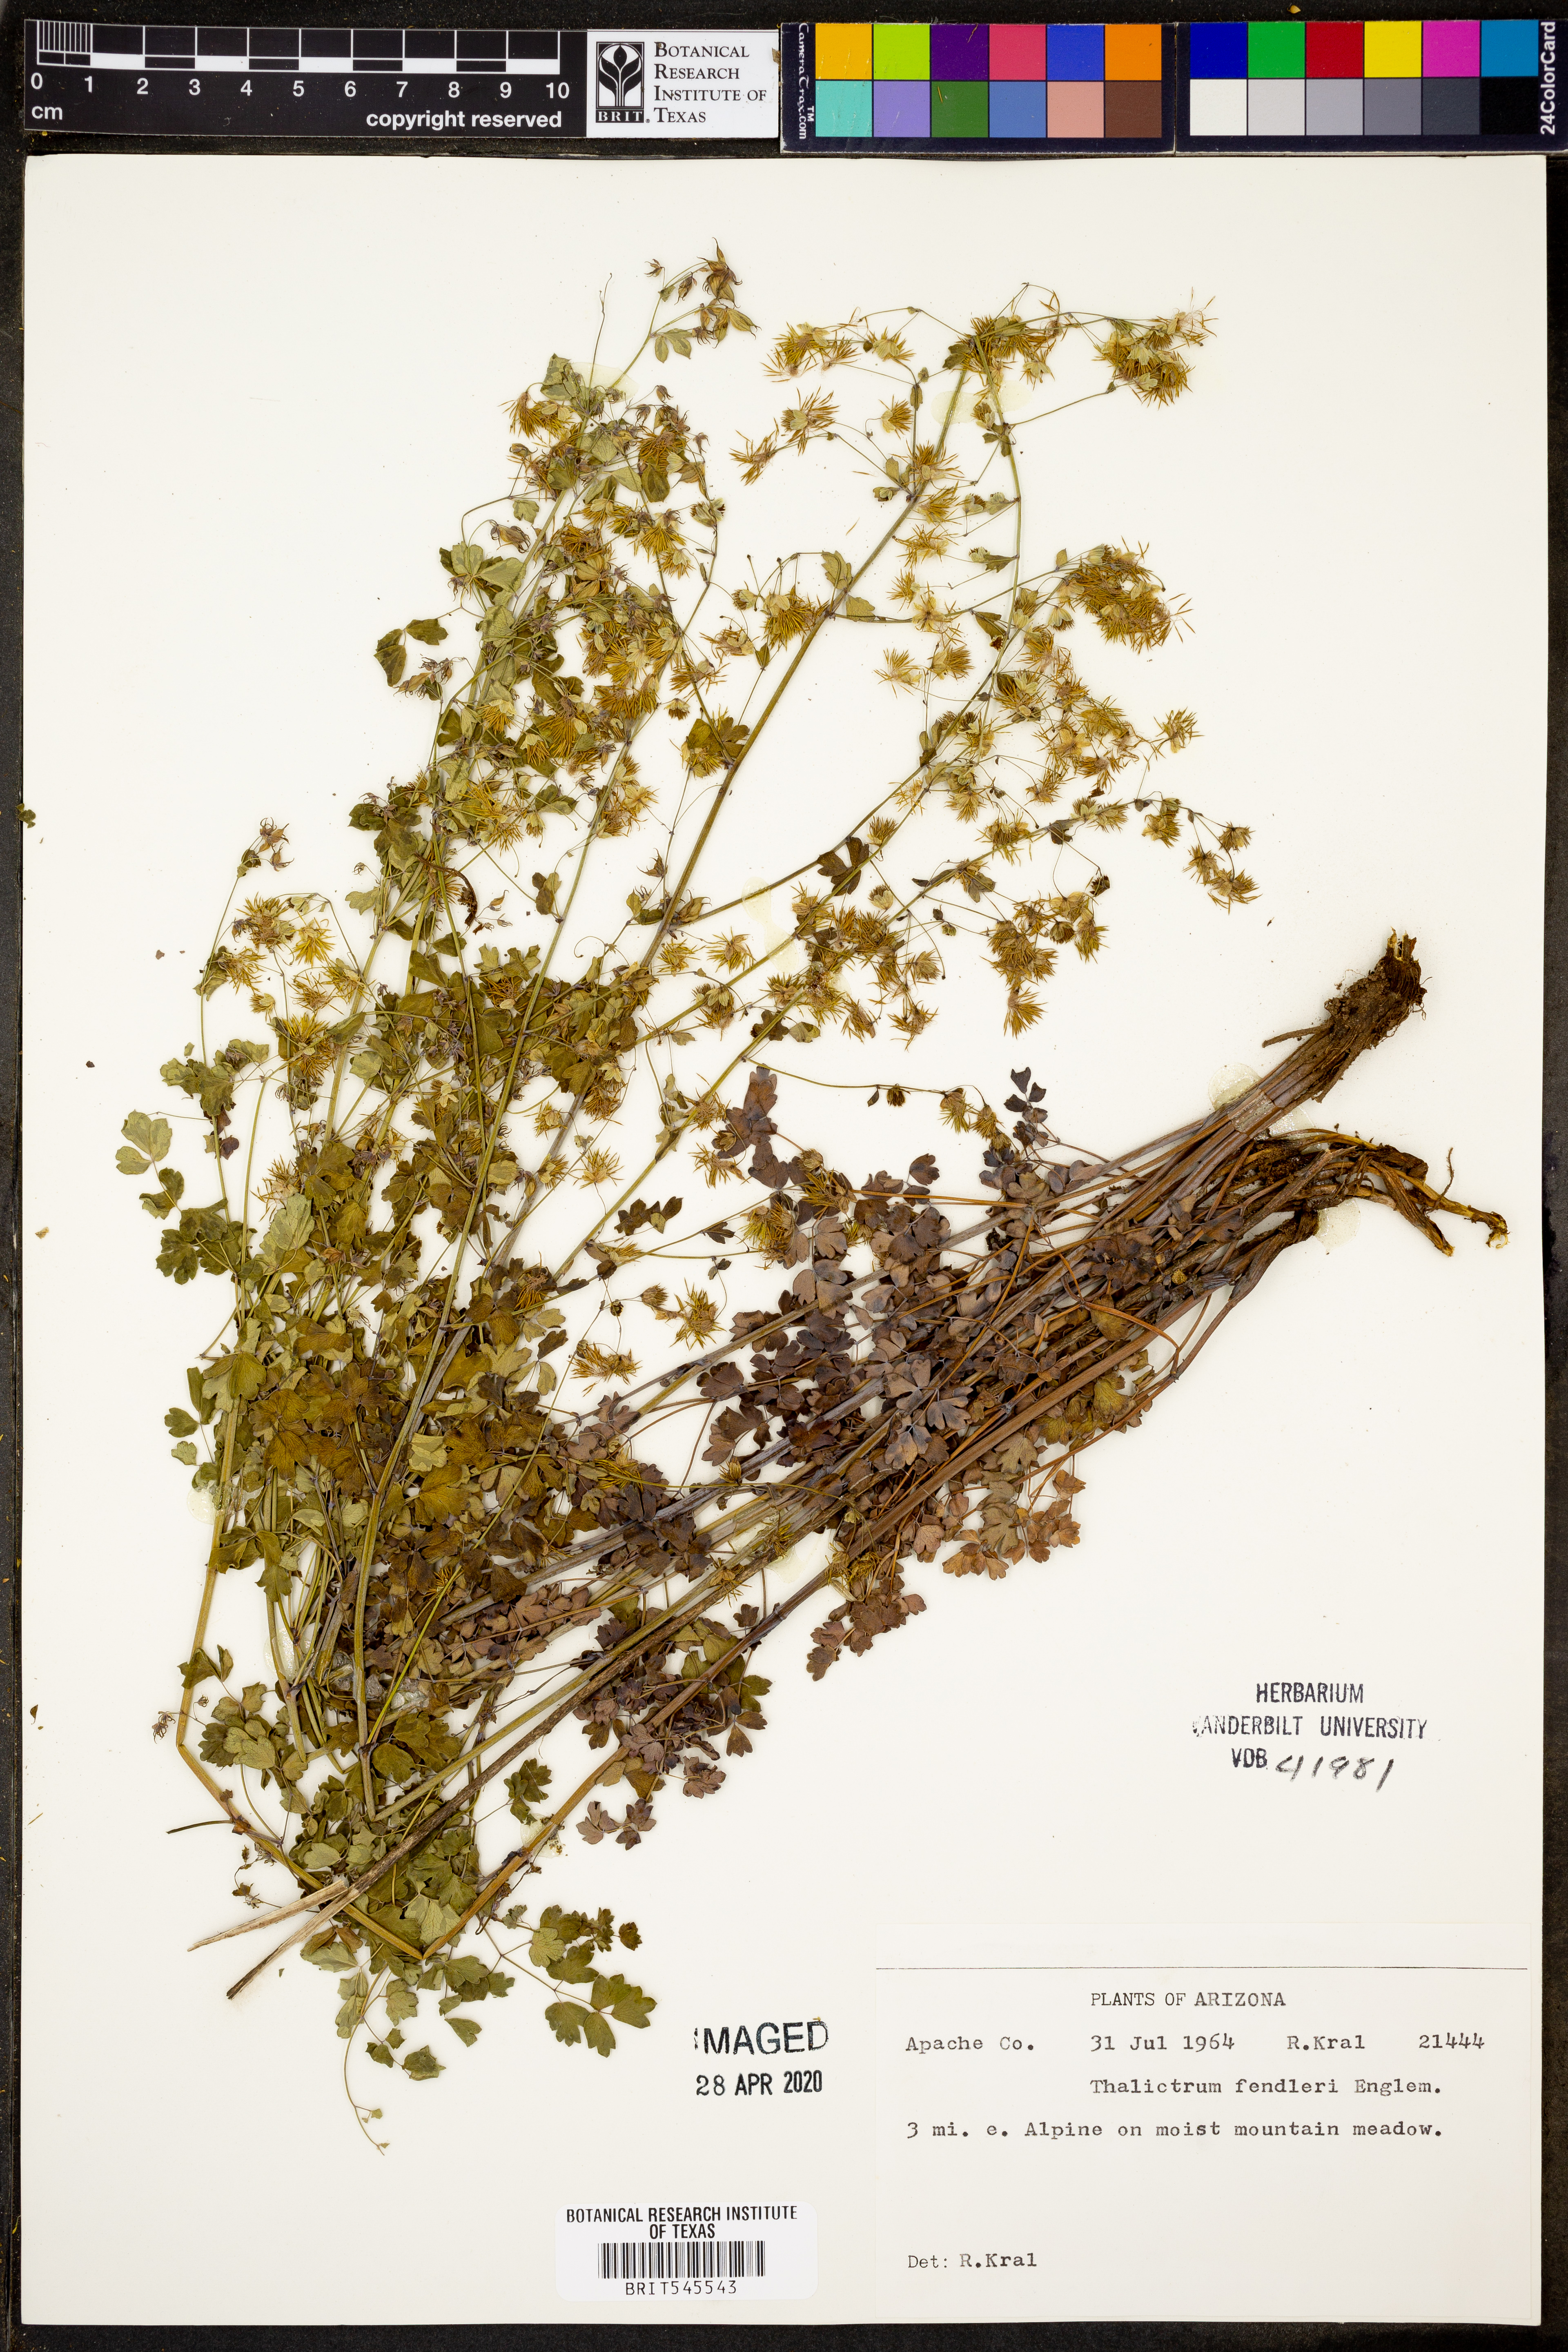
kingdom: Plantae
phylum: Tracheophyta
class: Magnoliopsida
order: Ranunculales
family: Ranunculaceae
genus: Thalictrum
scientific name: Thalictrum fendleri
